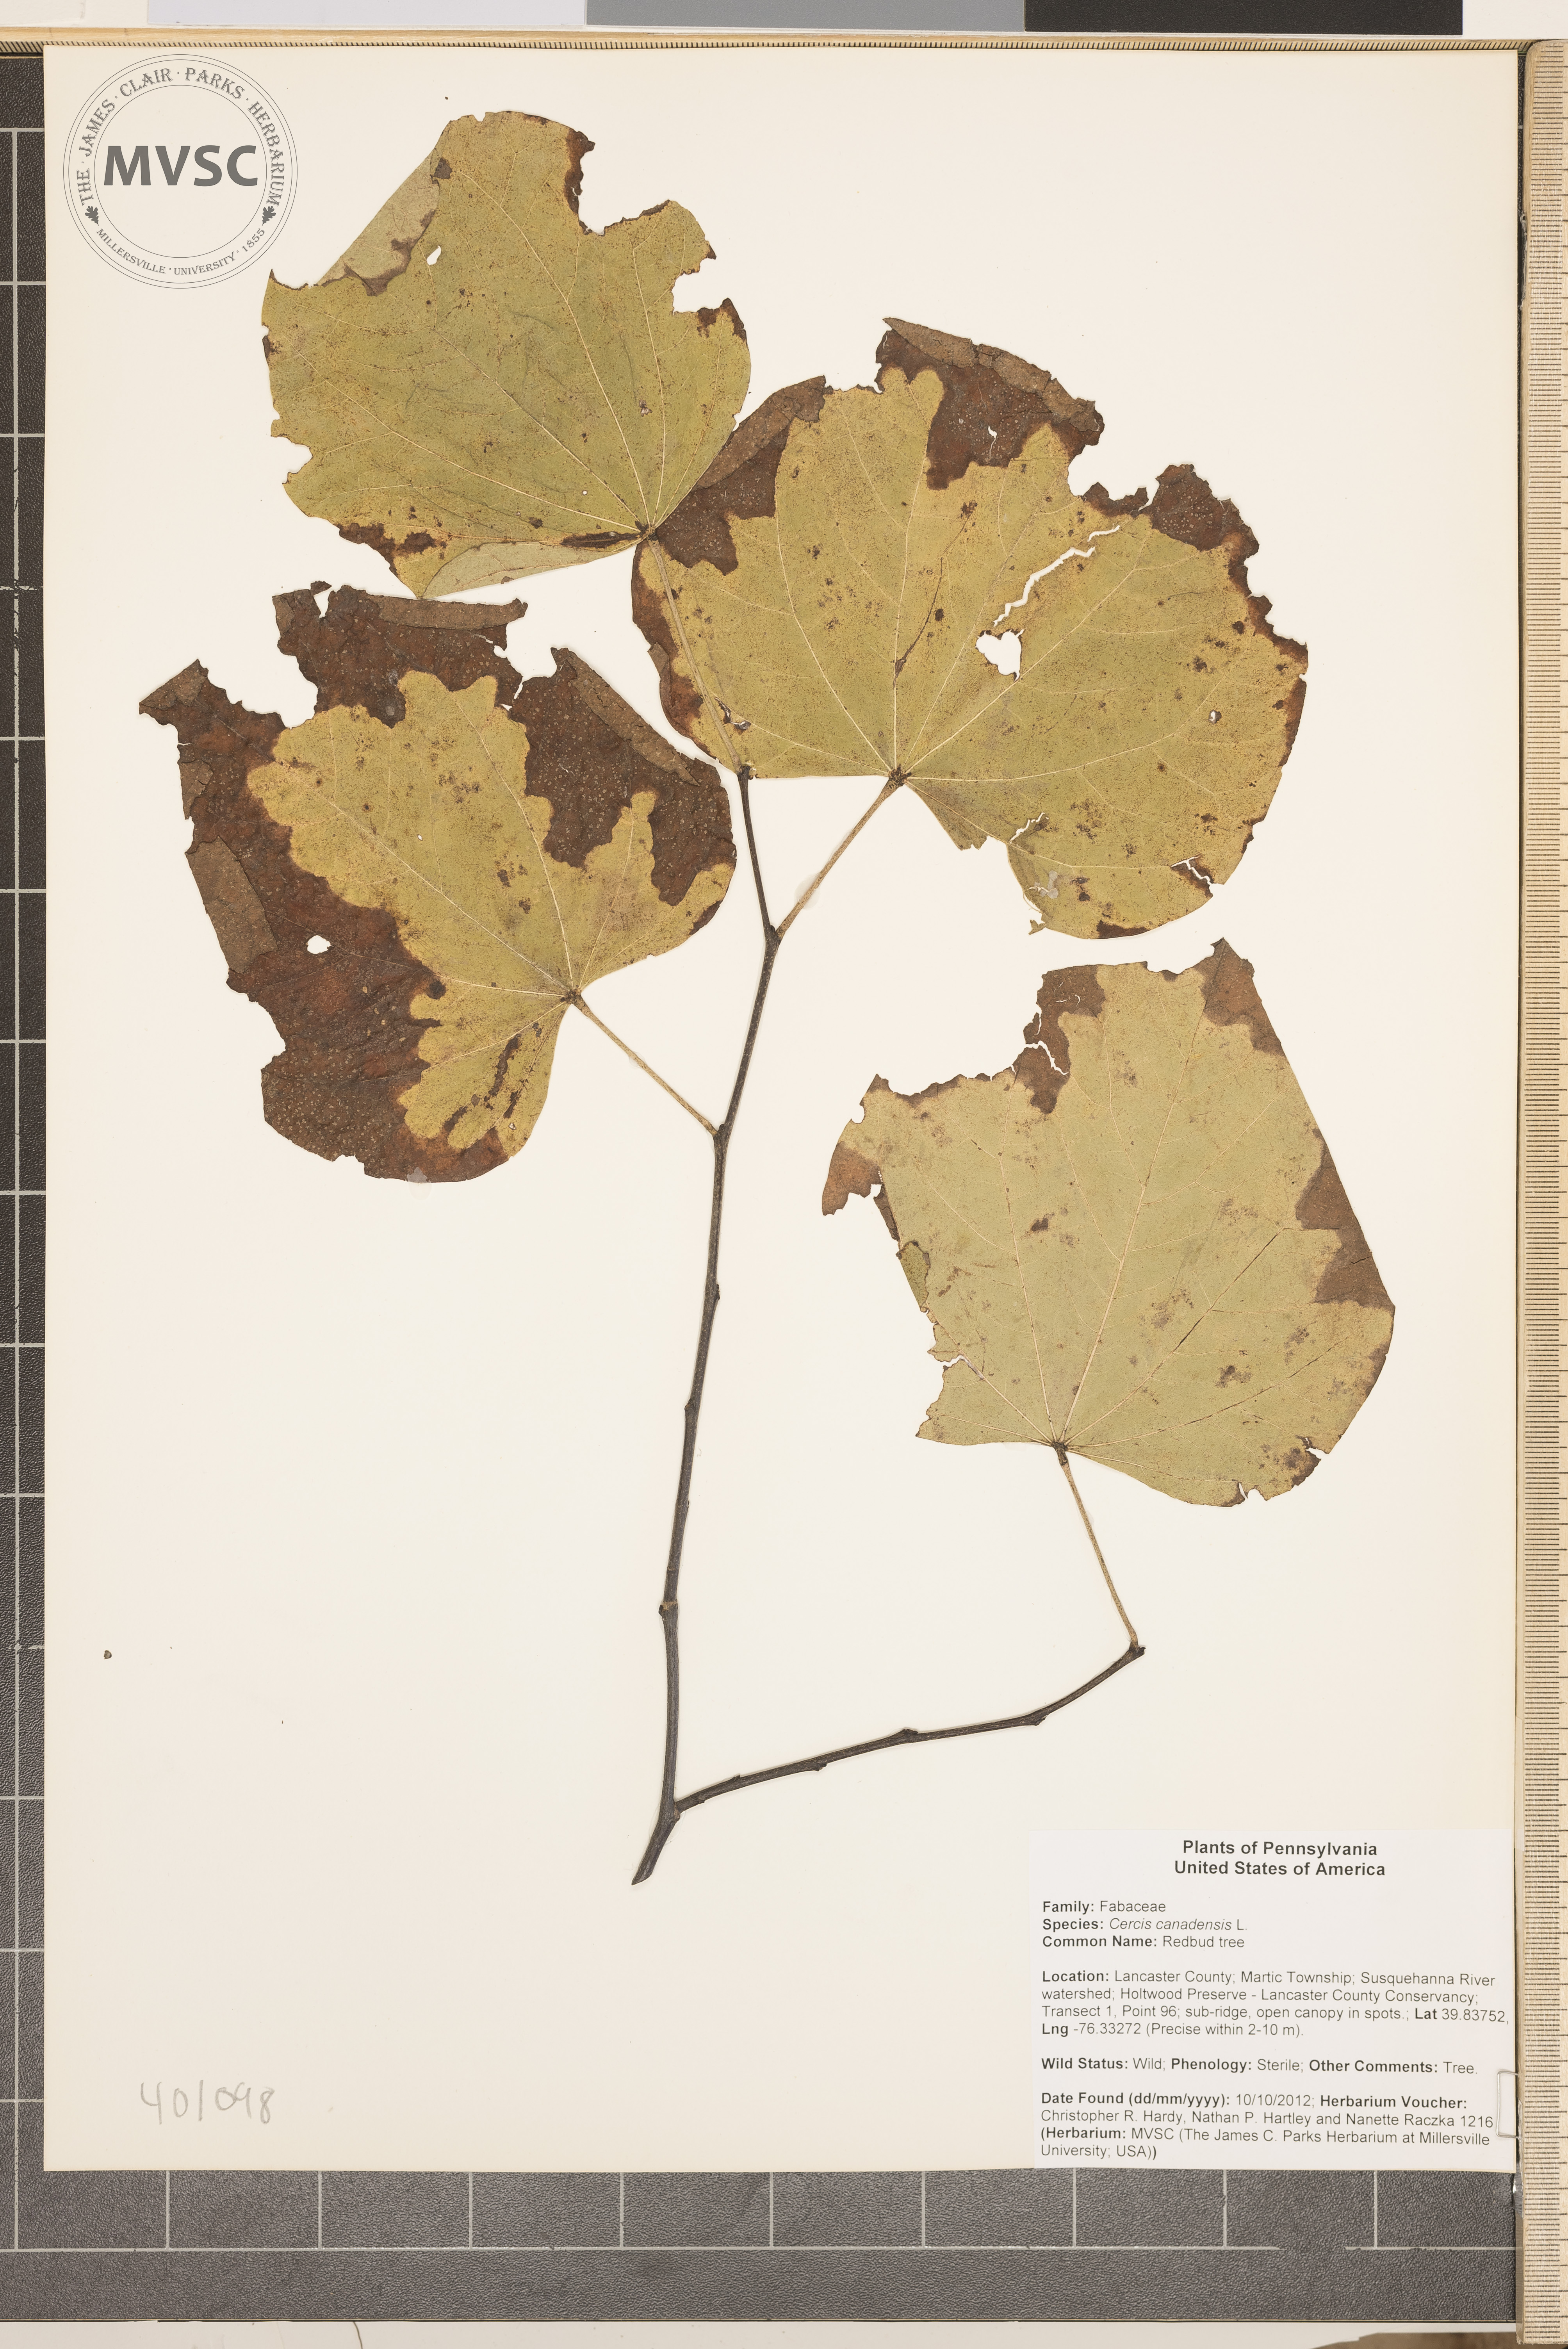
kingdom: Plantae
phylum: Tracheophyta
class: Magnoliopsida
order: Fabales
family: Fabaceae
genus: Cercis
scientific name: Cercis canadensis
